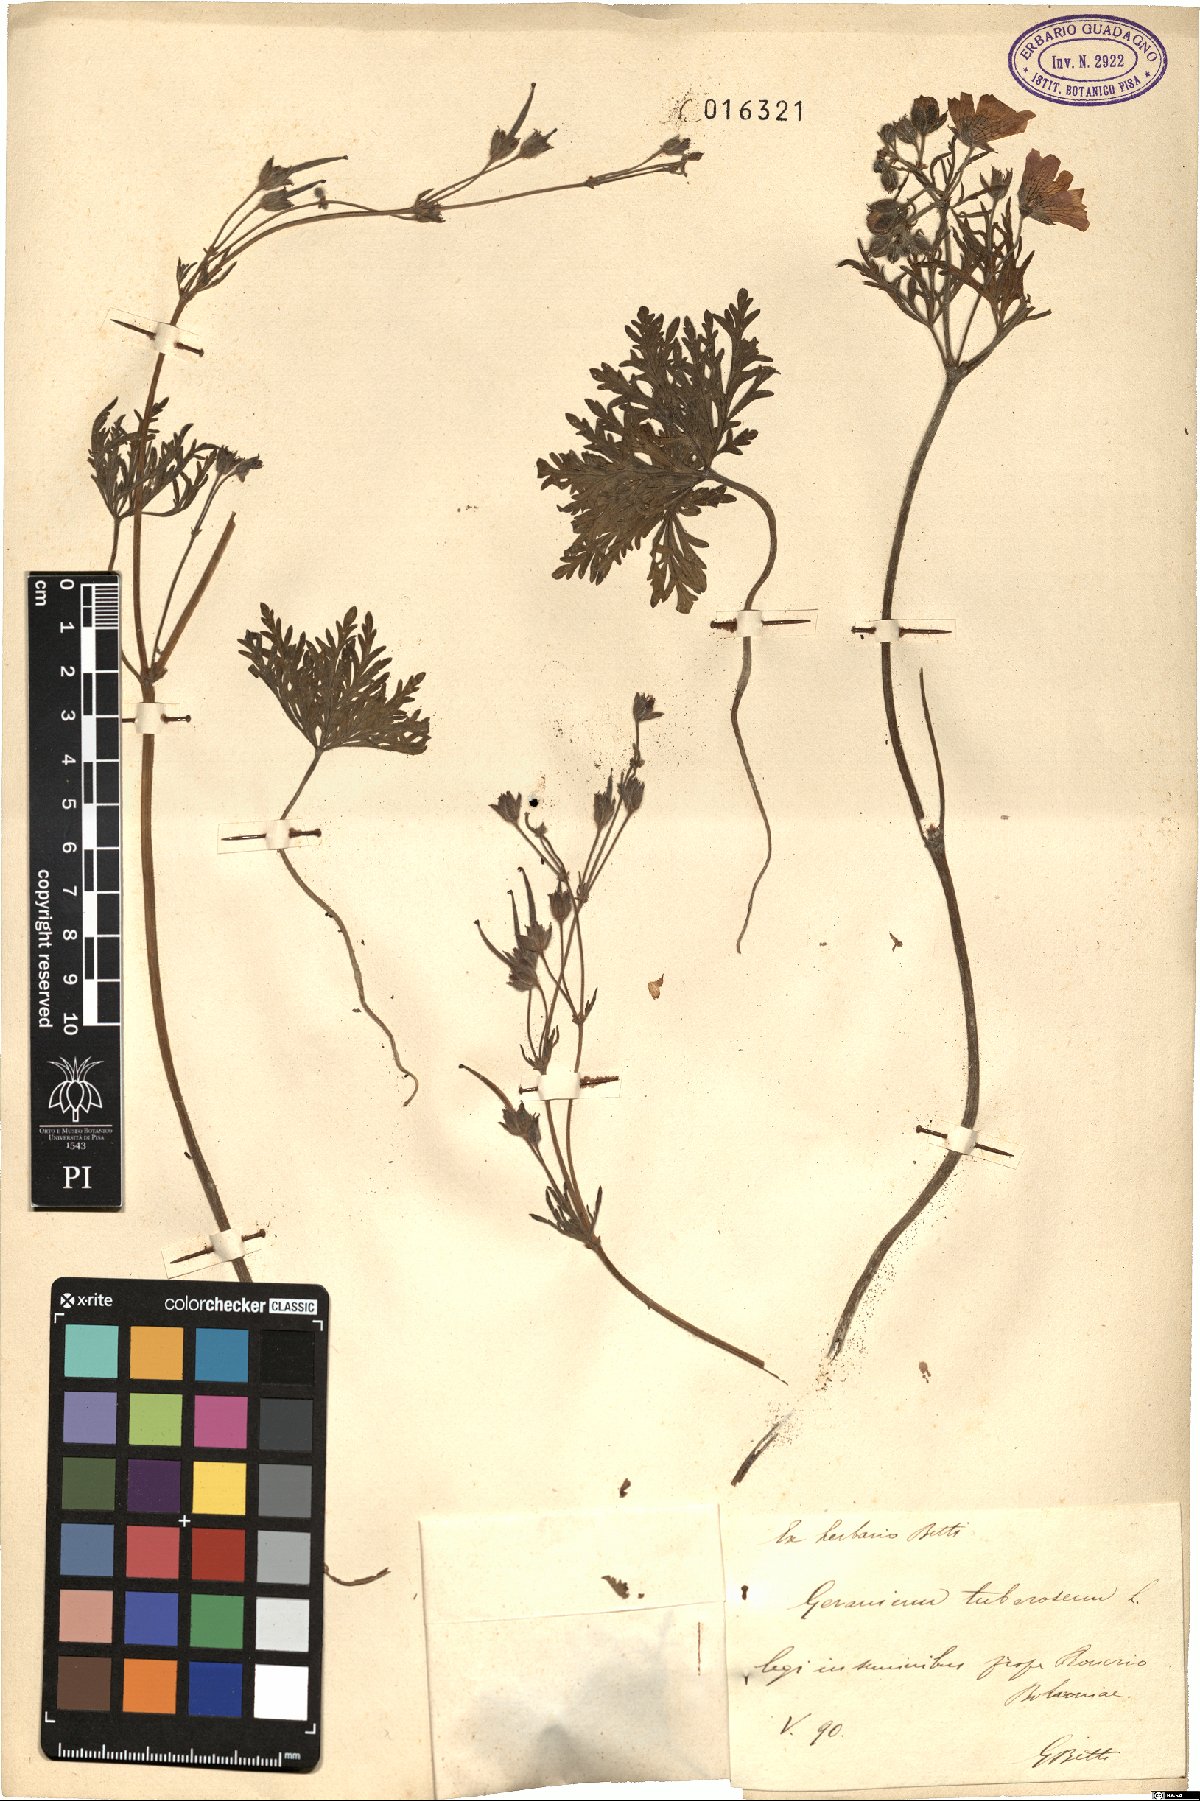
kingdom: Plantae
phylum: Tracheophyta
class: Magnoliopsida
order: Geraniales
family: Geraniaceae
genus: Geranium
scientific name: Geranium tuberosum
